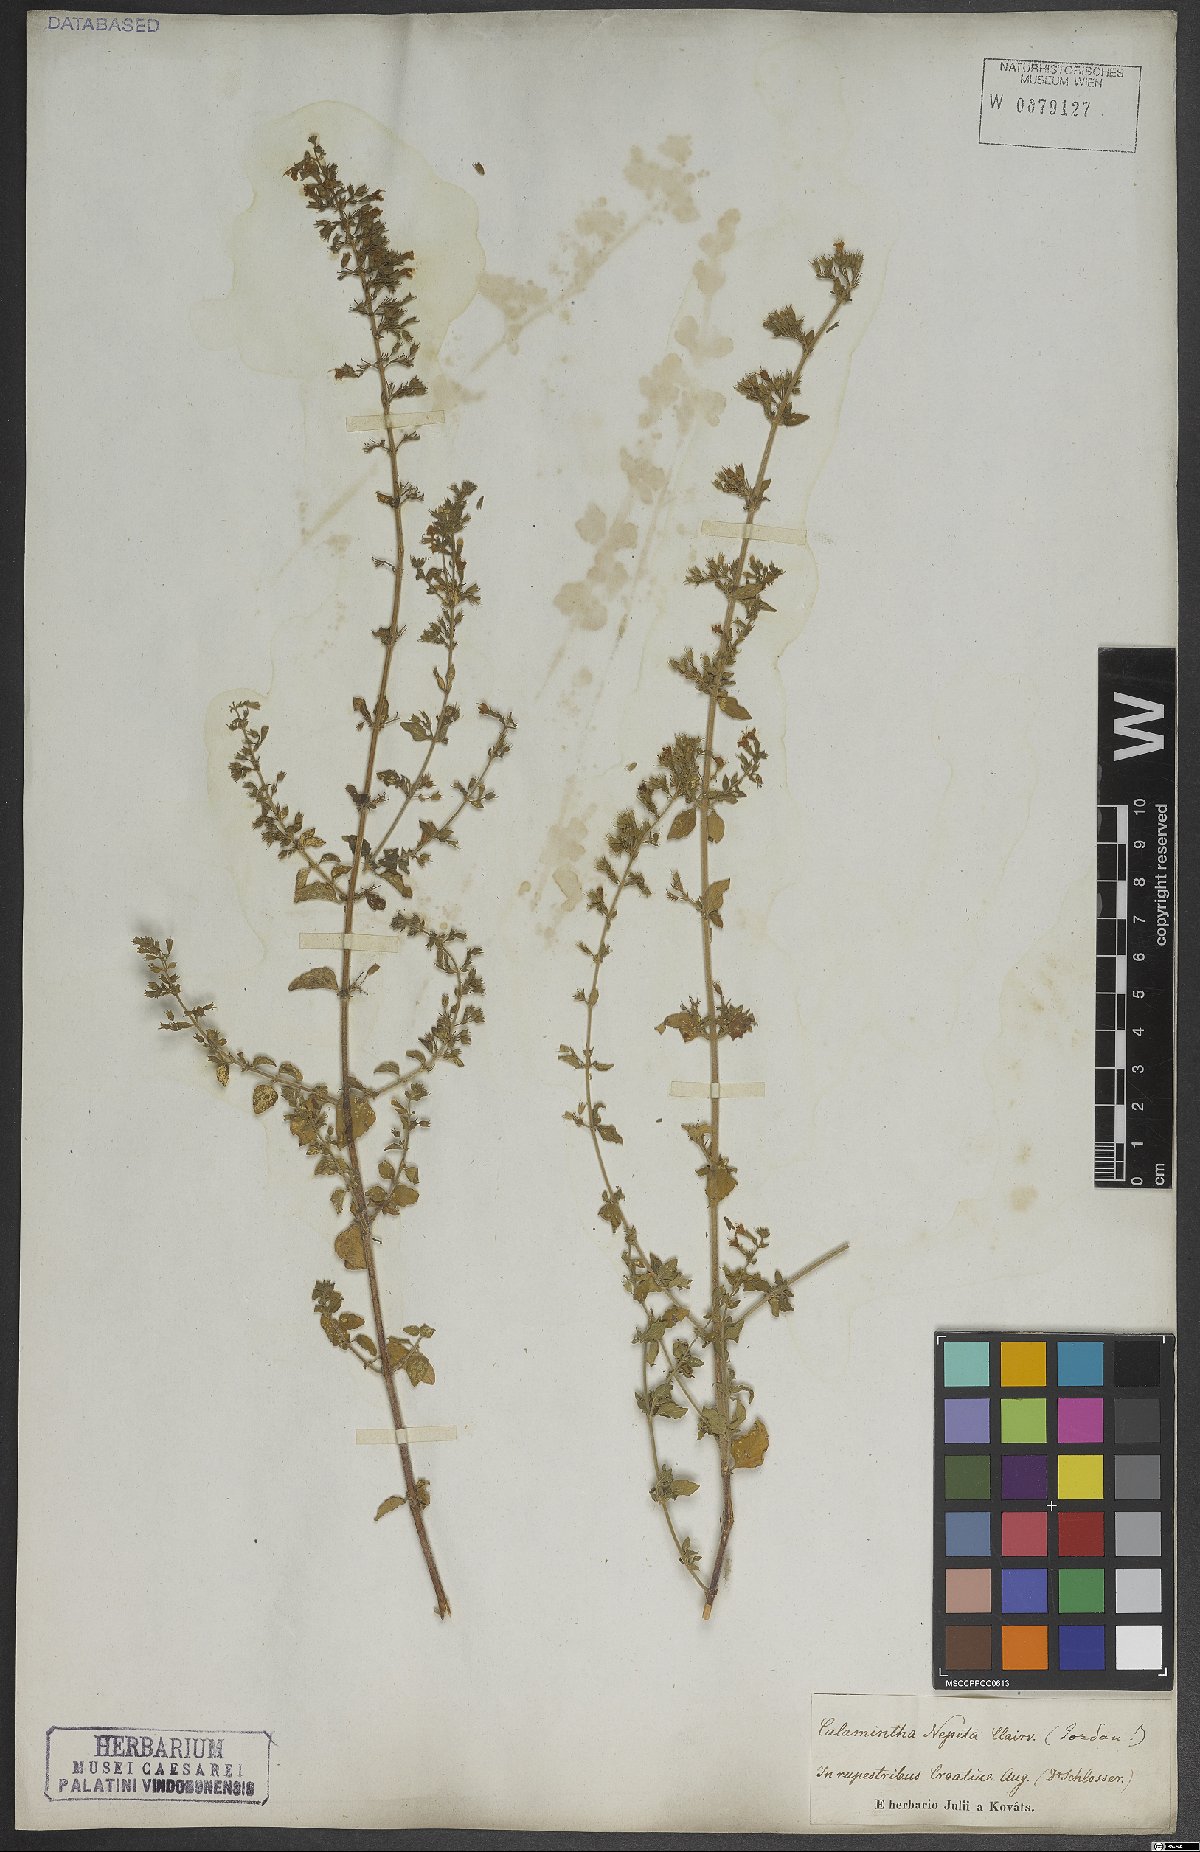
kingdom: Plantae
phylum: Tracheophyta
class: Magnoliopsida
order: Lamiales
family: Lamiaceae
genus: Clinopodium
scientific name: Clinopodium nepeta
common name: Lesser calamint
